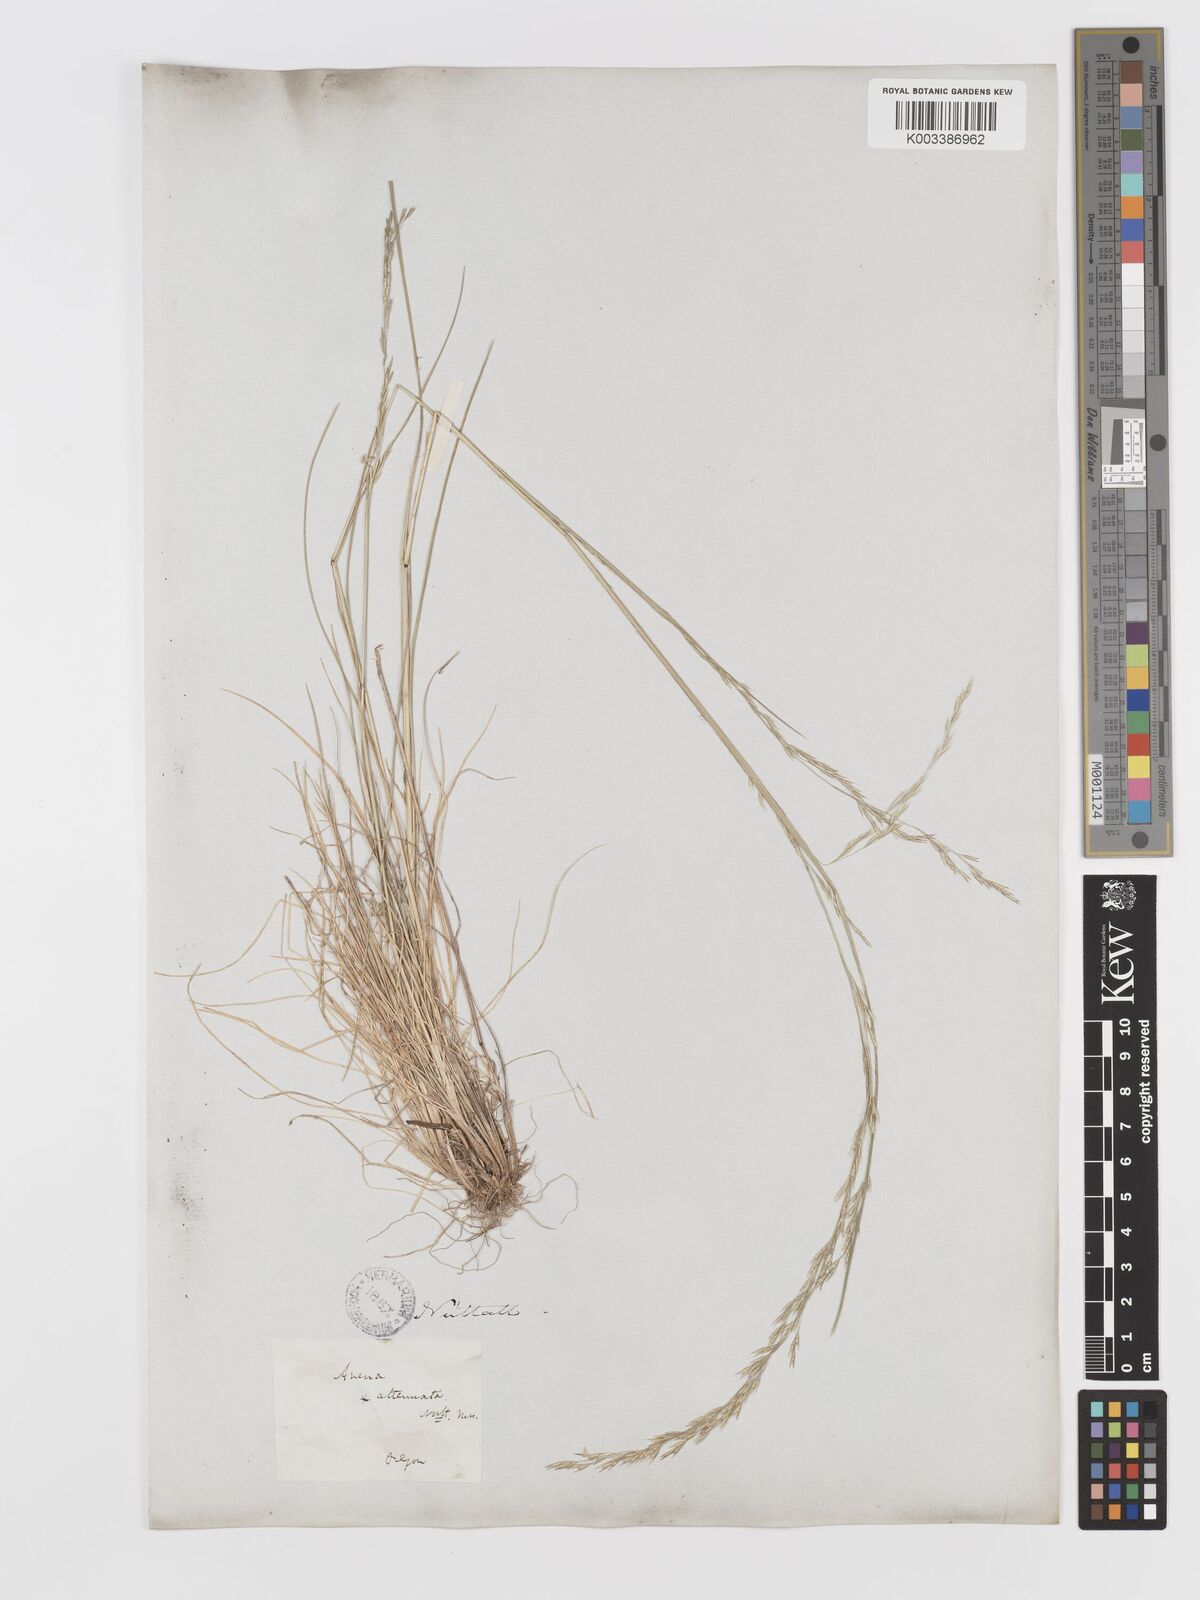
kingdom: Plantae
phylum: Tracheophyta
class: Liliopsida
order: Poales
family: Poaceae
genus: Deschampsia
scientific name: Deschampsia elongata
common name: Slender hairgrass
